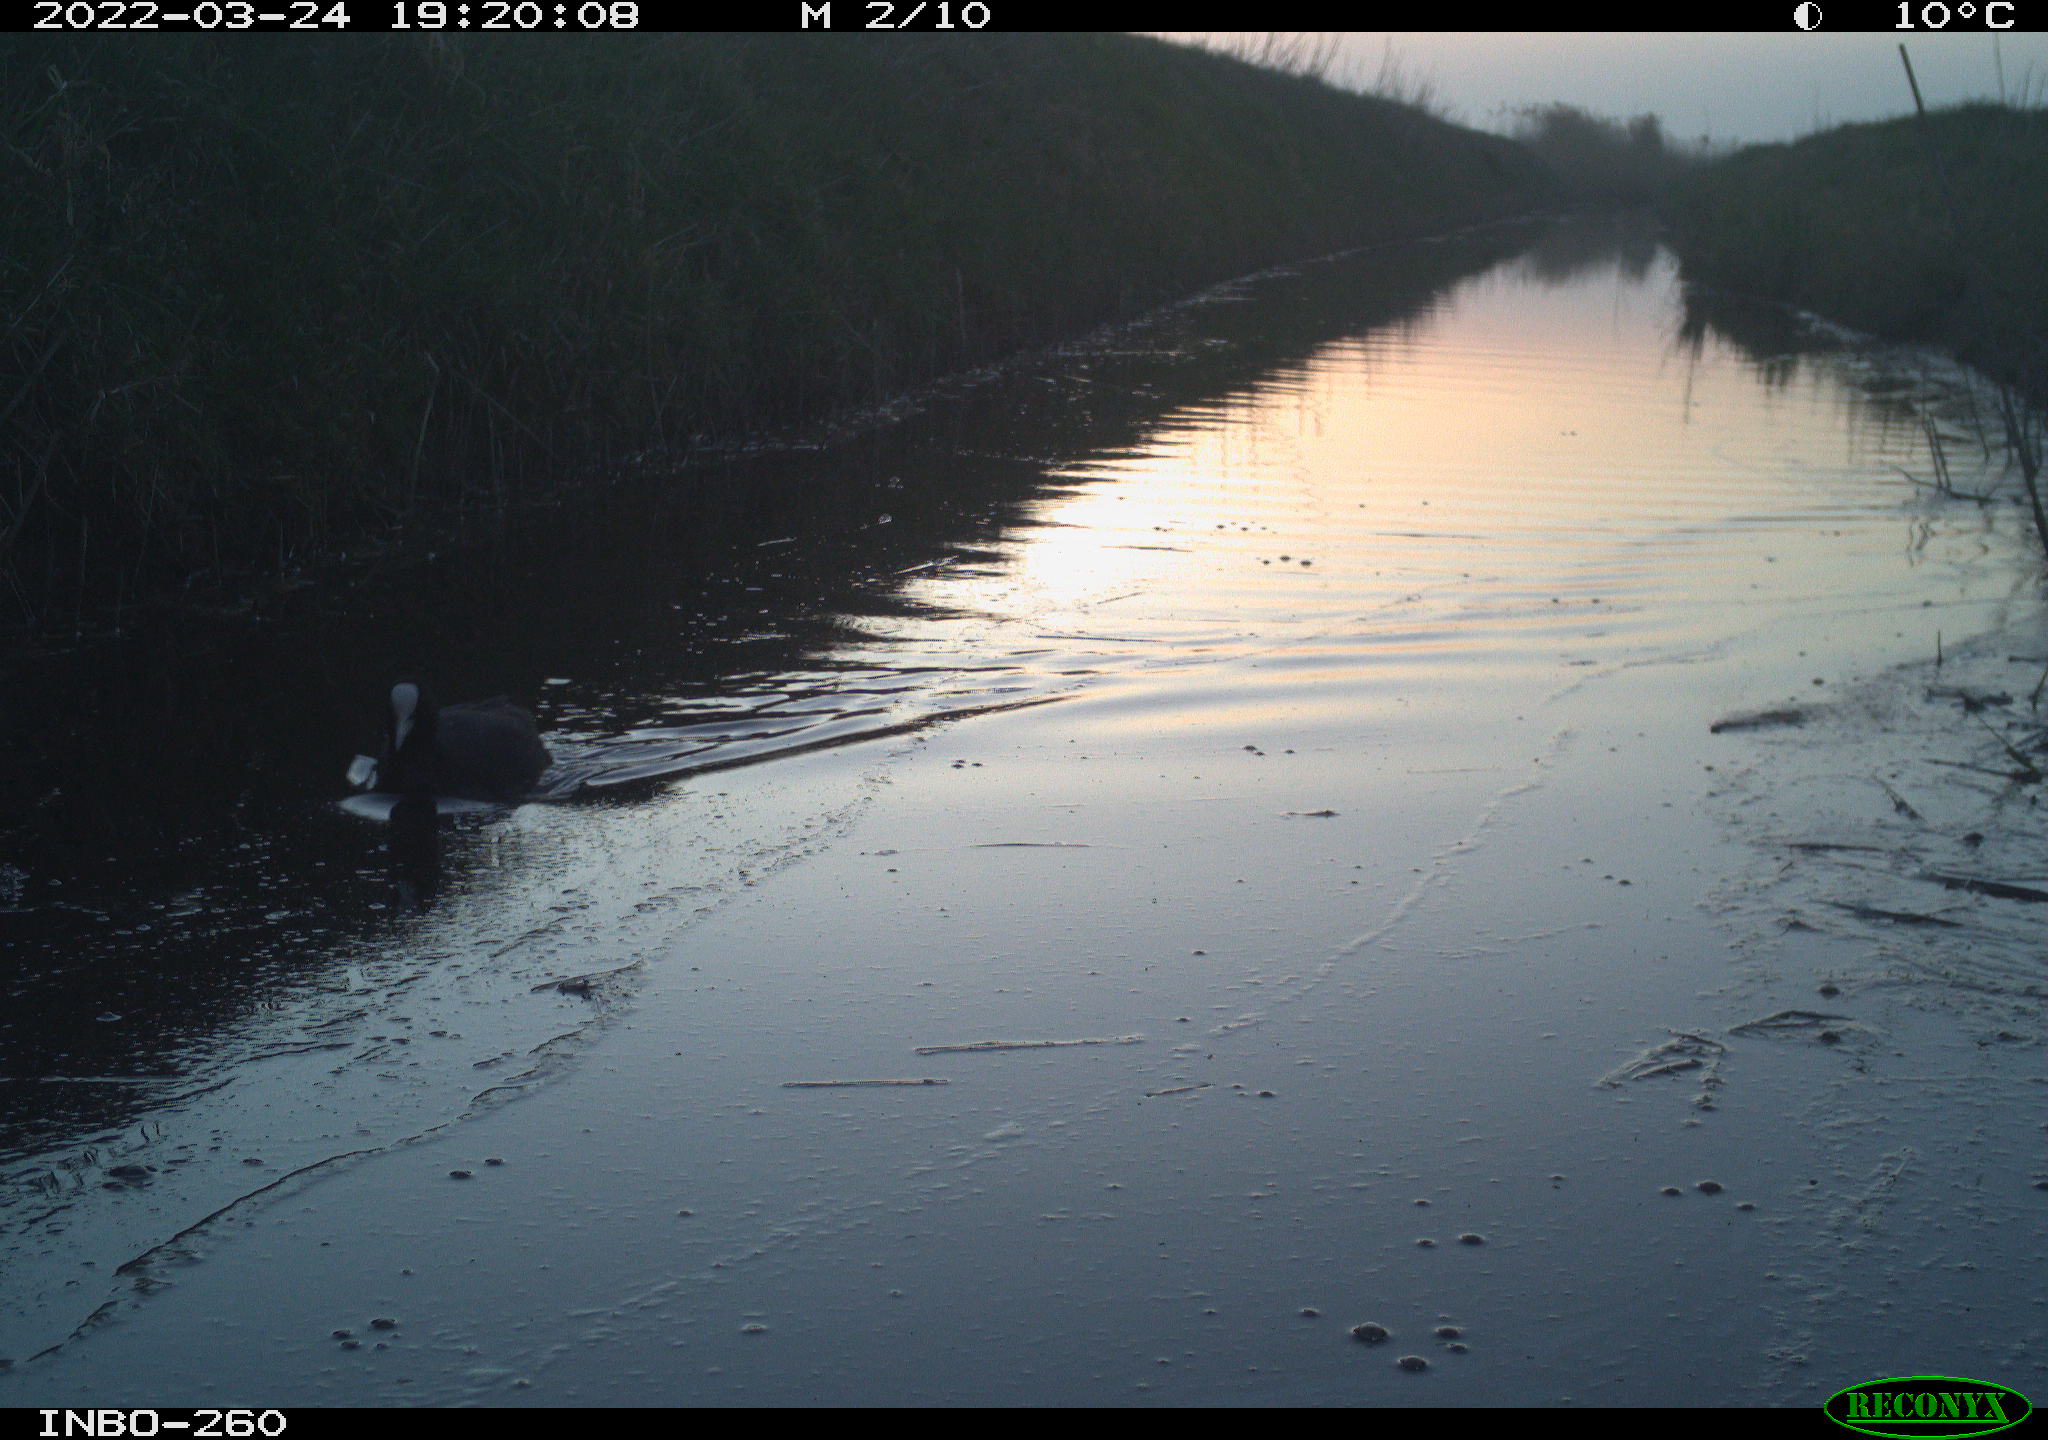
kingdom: Animalia
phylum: Chordata
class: Aves
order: Gruiformes
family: Rallidae
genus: Fulica
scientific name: Fulica atra
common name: Eurasian coot
